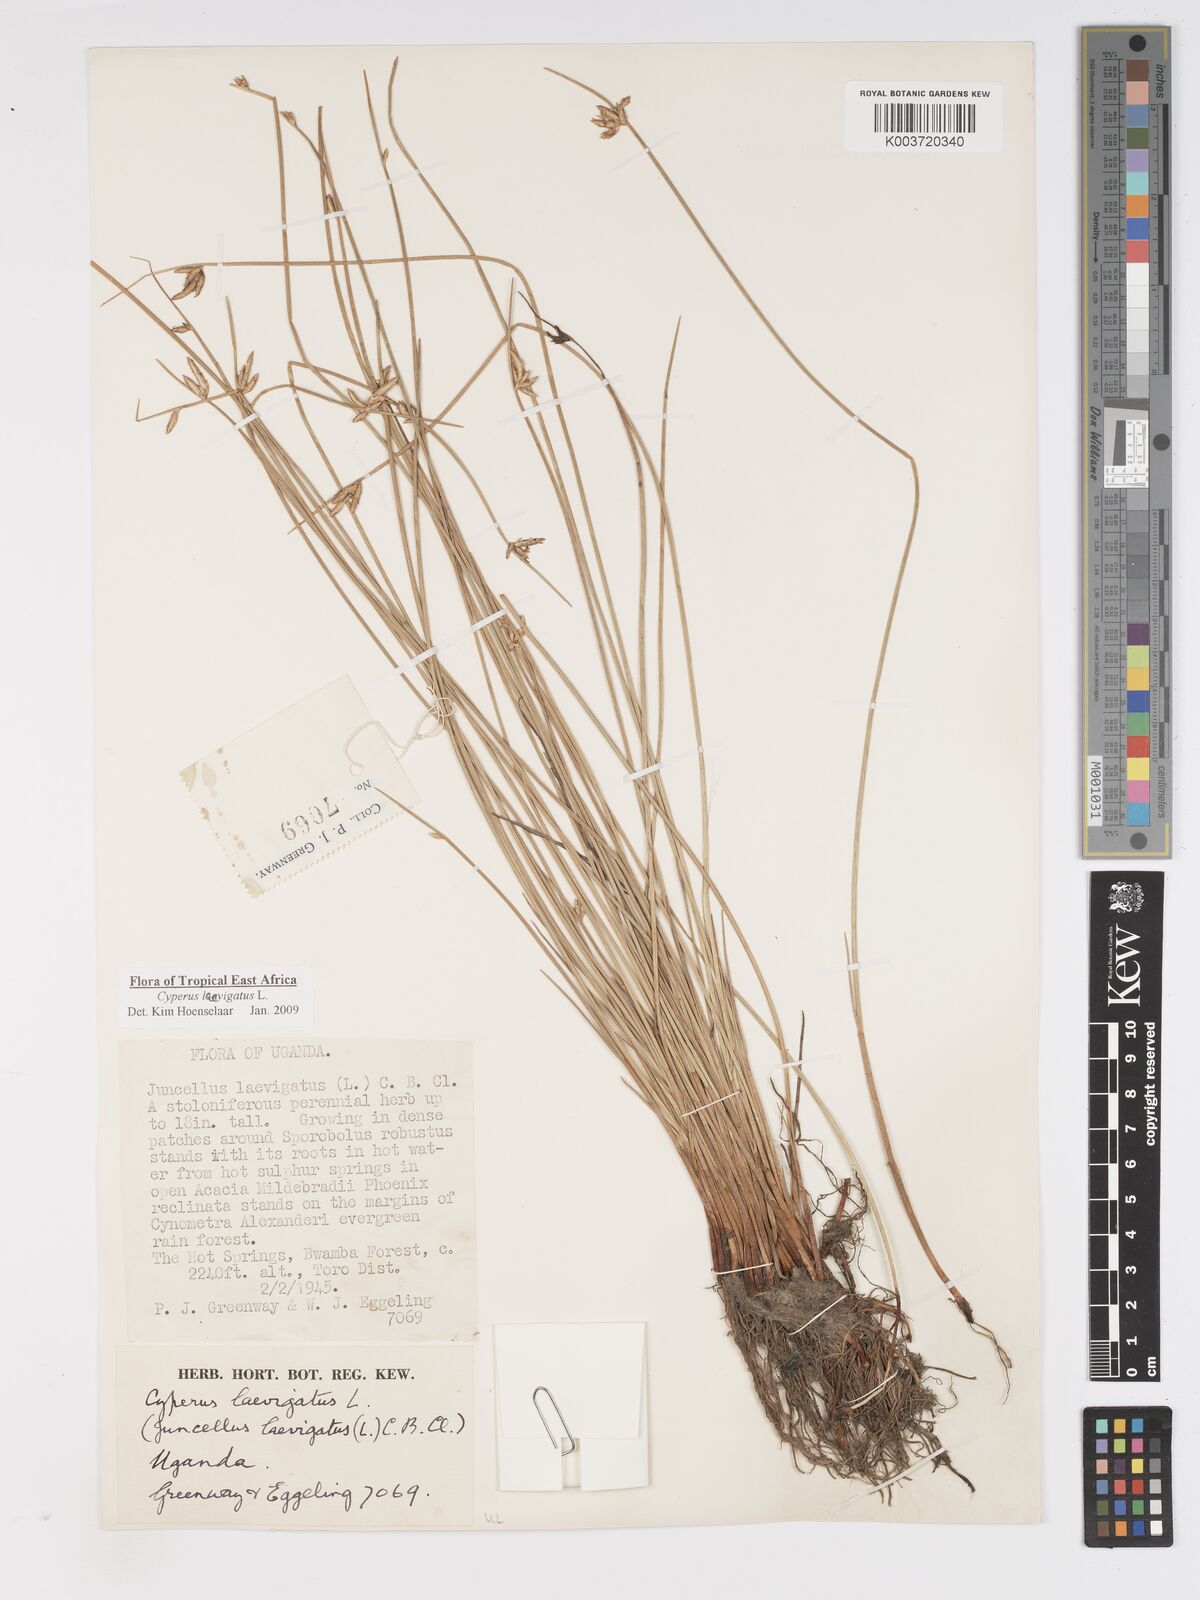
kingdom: Plantae
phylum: Tracheophyta
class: Liliopsida
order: Poales
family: Cyperaceae
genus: Cyperus
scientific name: Cyperus laevigatus
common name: Smooth flat sedge
